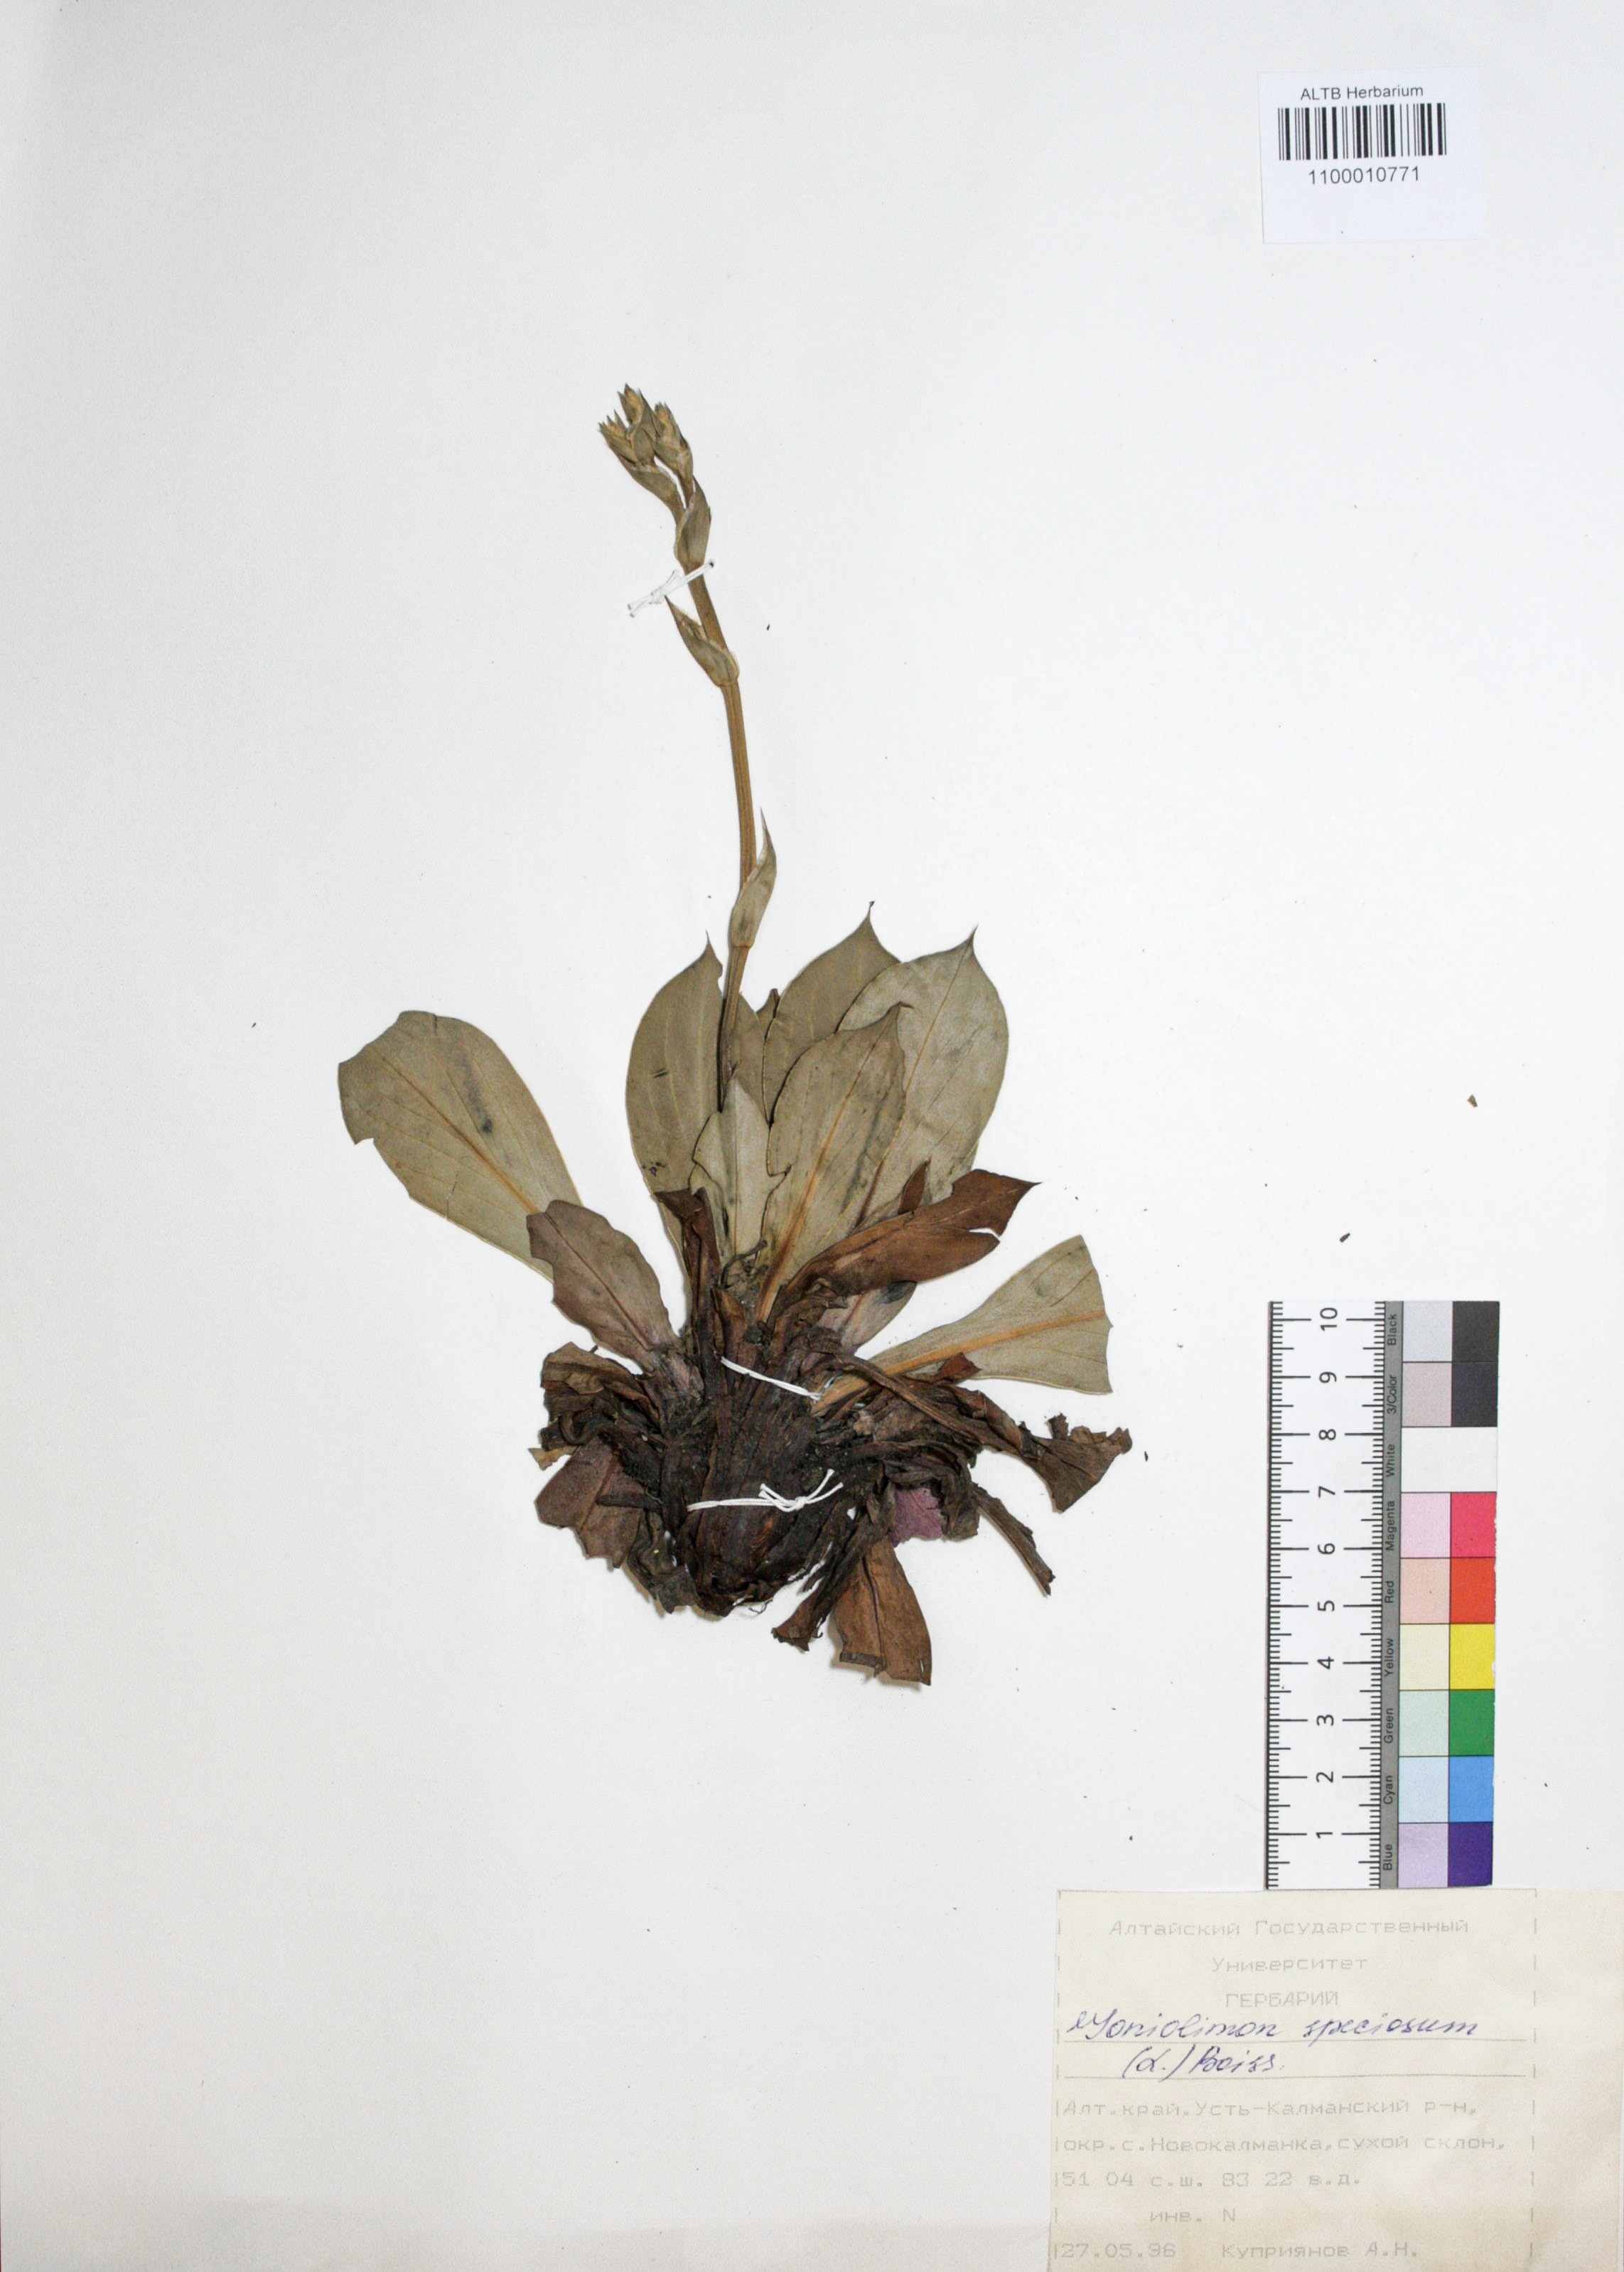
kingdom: Plantae
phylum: Tracheophyta
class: Magnoliopsida
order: Caryophyllales
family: Plumbaginaceae
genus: Goniolimon
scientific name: Goniolimon speciosum
